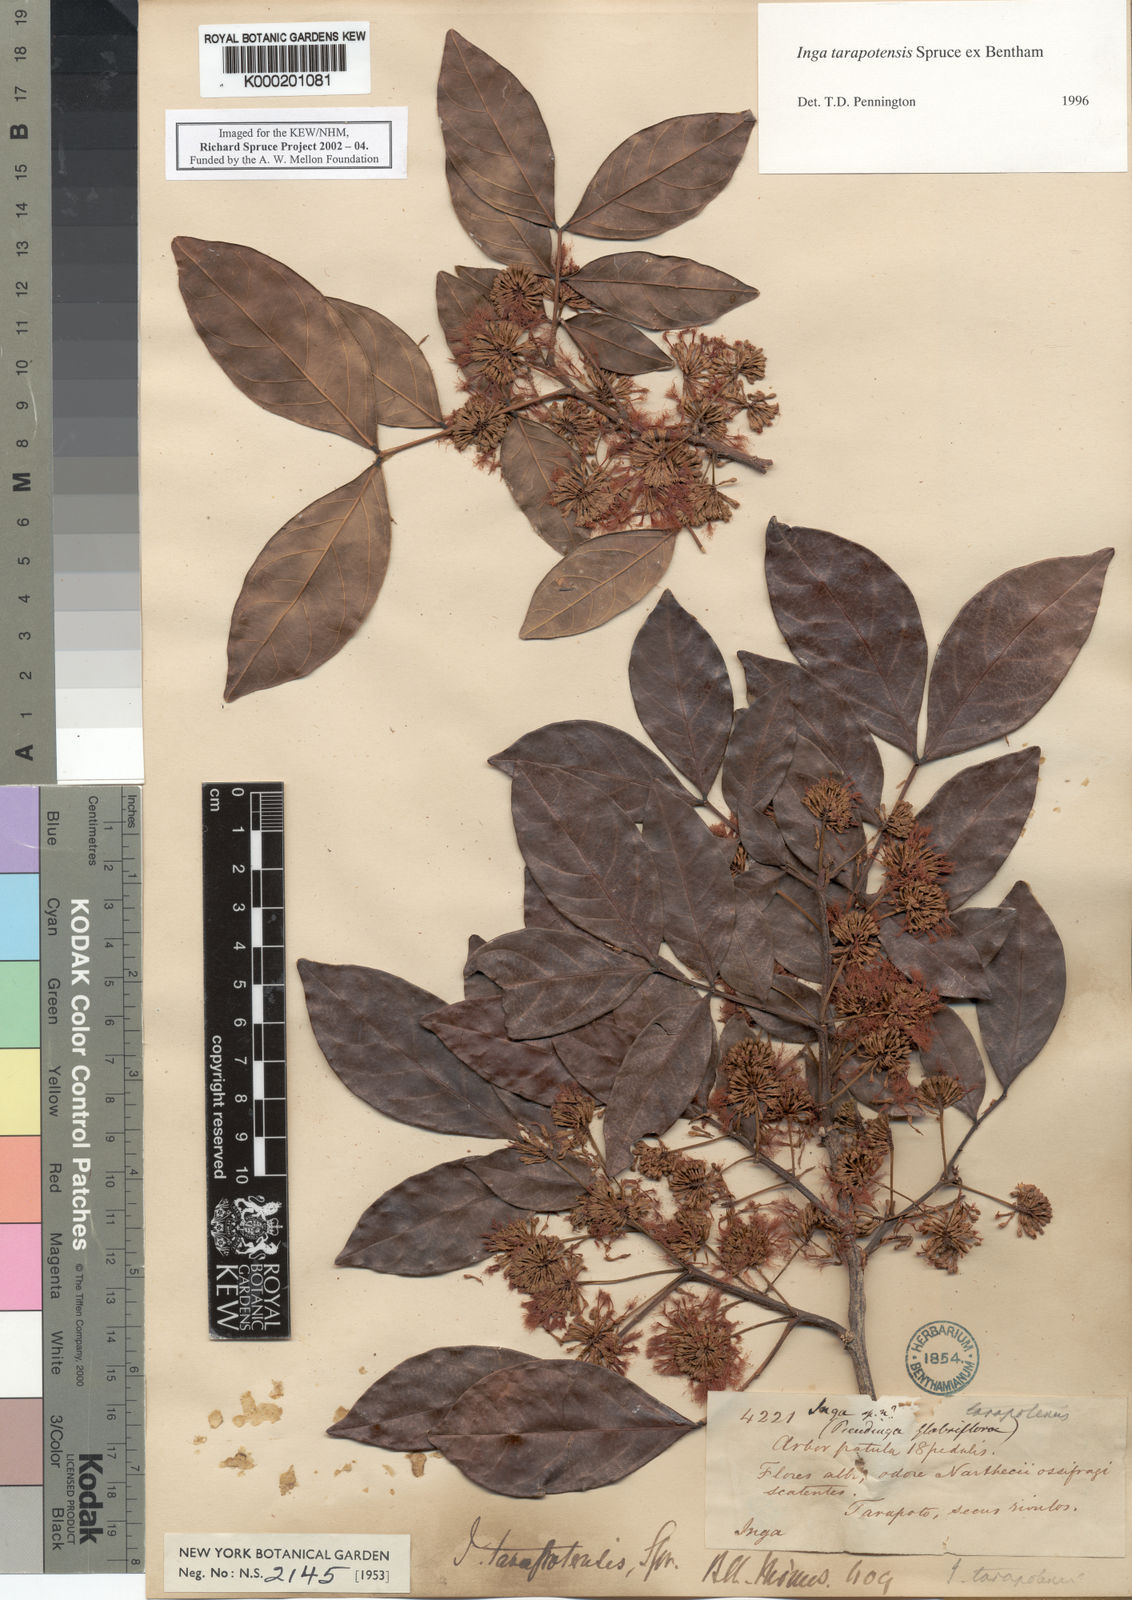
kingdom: Plantae
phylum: Tracheophyta
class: Magnoliopsida
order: Fabales
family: Fabaceae
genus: Inga
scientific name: Inga tarapotensis
